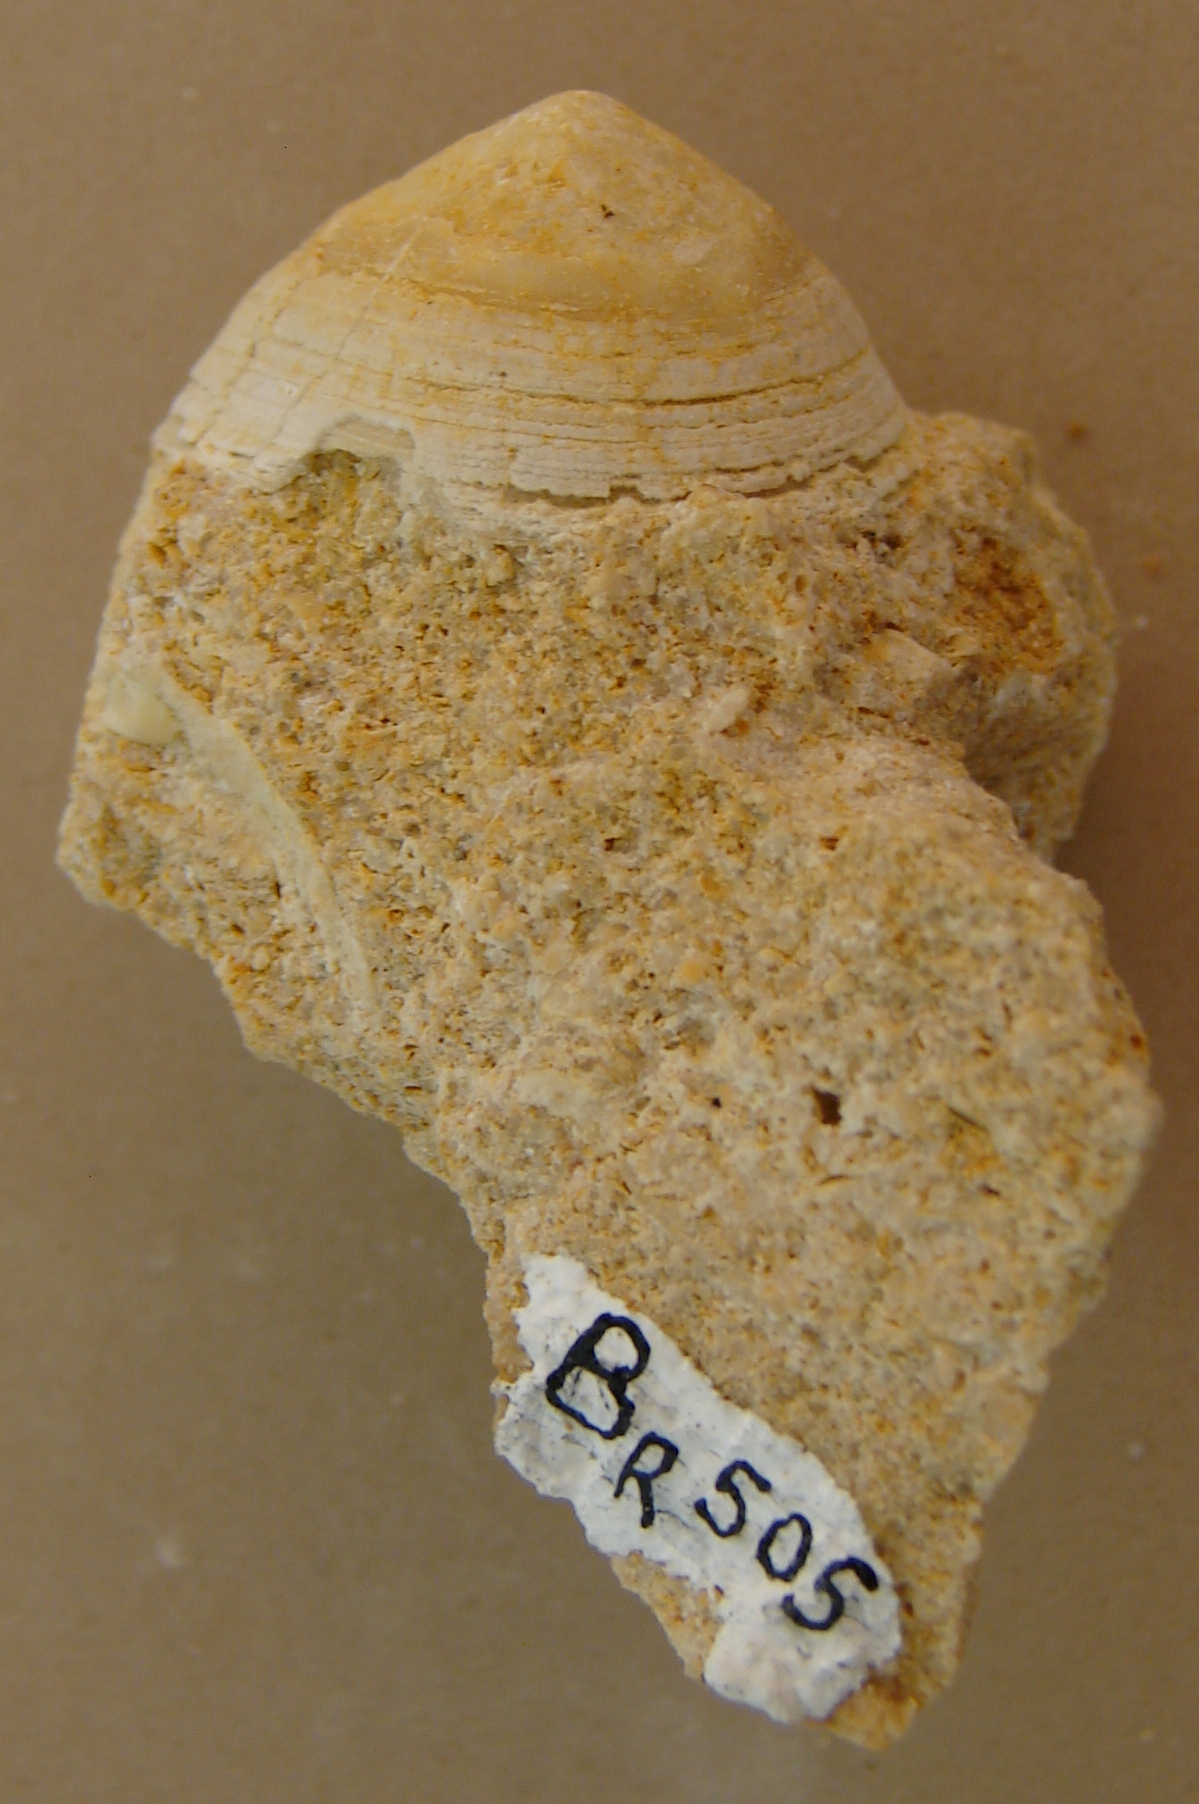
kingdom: Animalia
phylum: Mollusca
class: Gastropoda
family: Acmaeadae
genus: Scurriopsis
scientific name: Scurriopsis Patella hettangiensis
